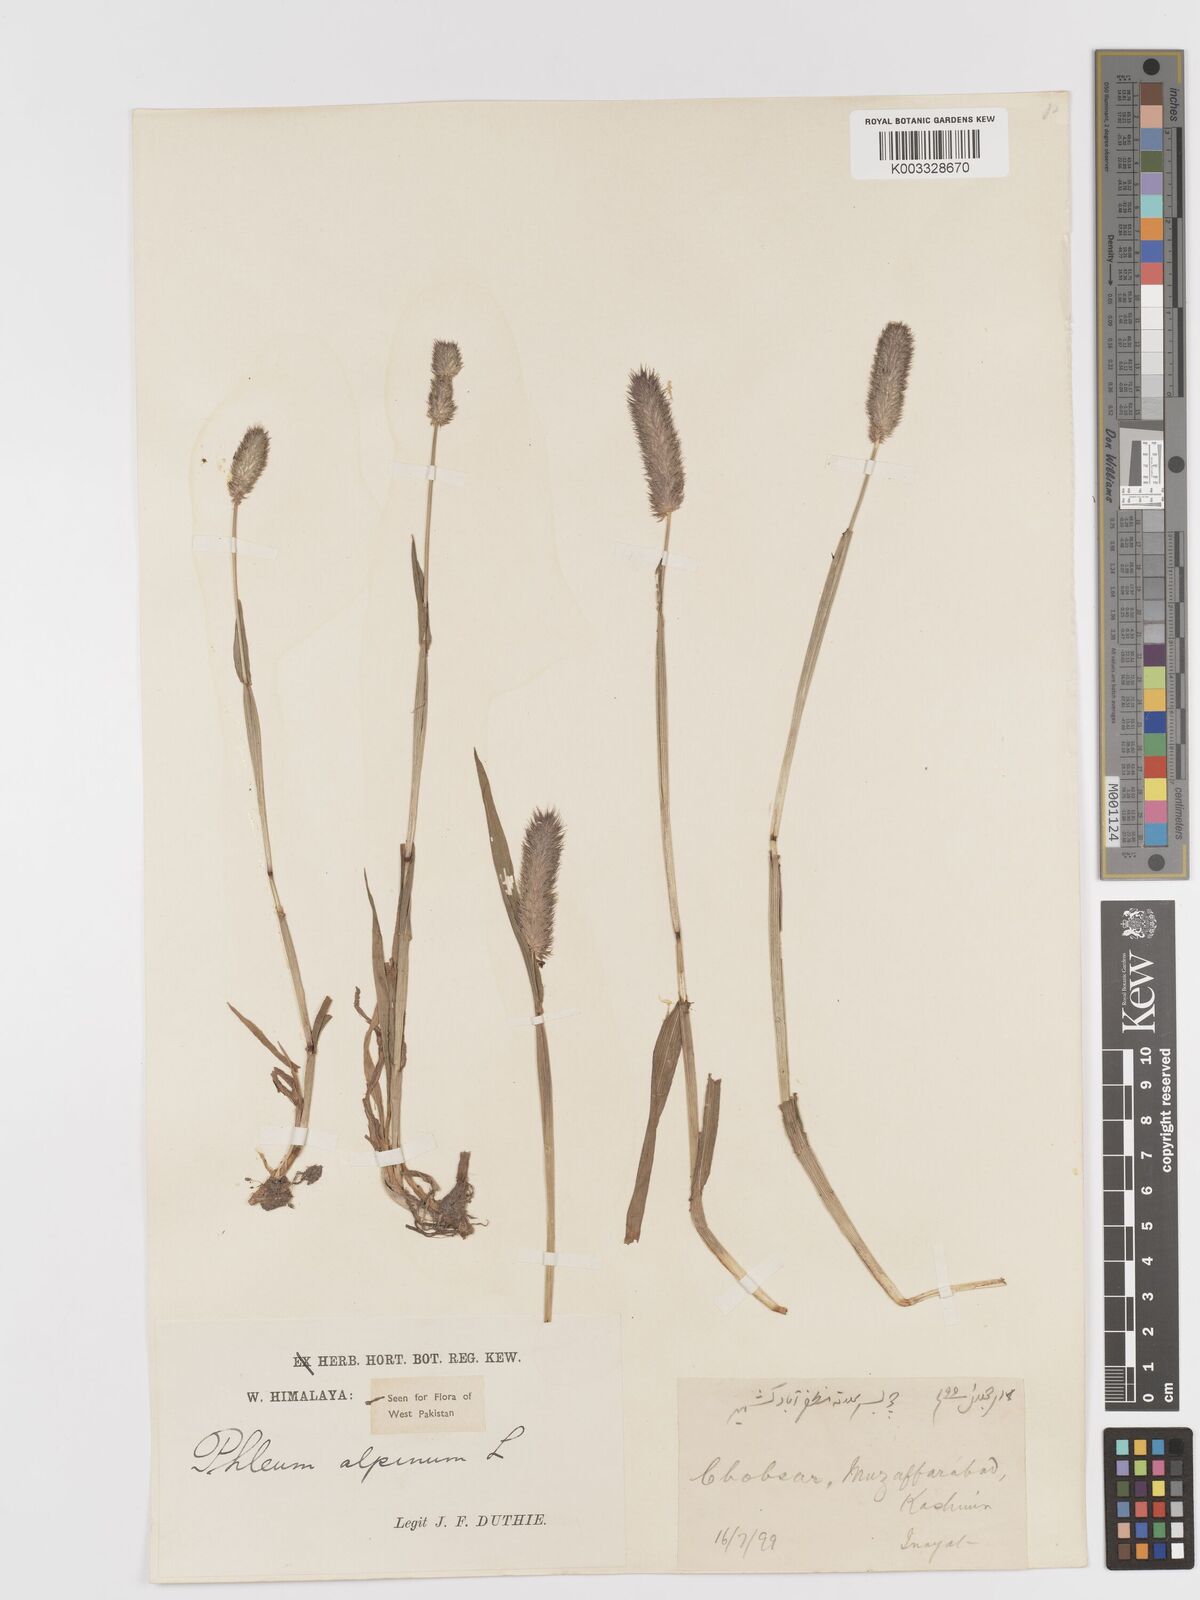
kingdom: Plantae
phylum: Tracheophyta
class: Liliopsida
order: Poales
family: Poaceae
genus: Phleum
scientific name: Phleum alpinum
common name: Alpine cat's-tail
